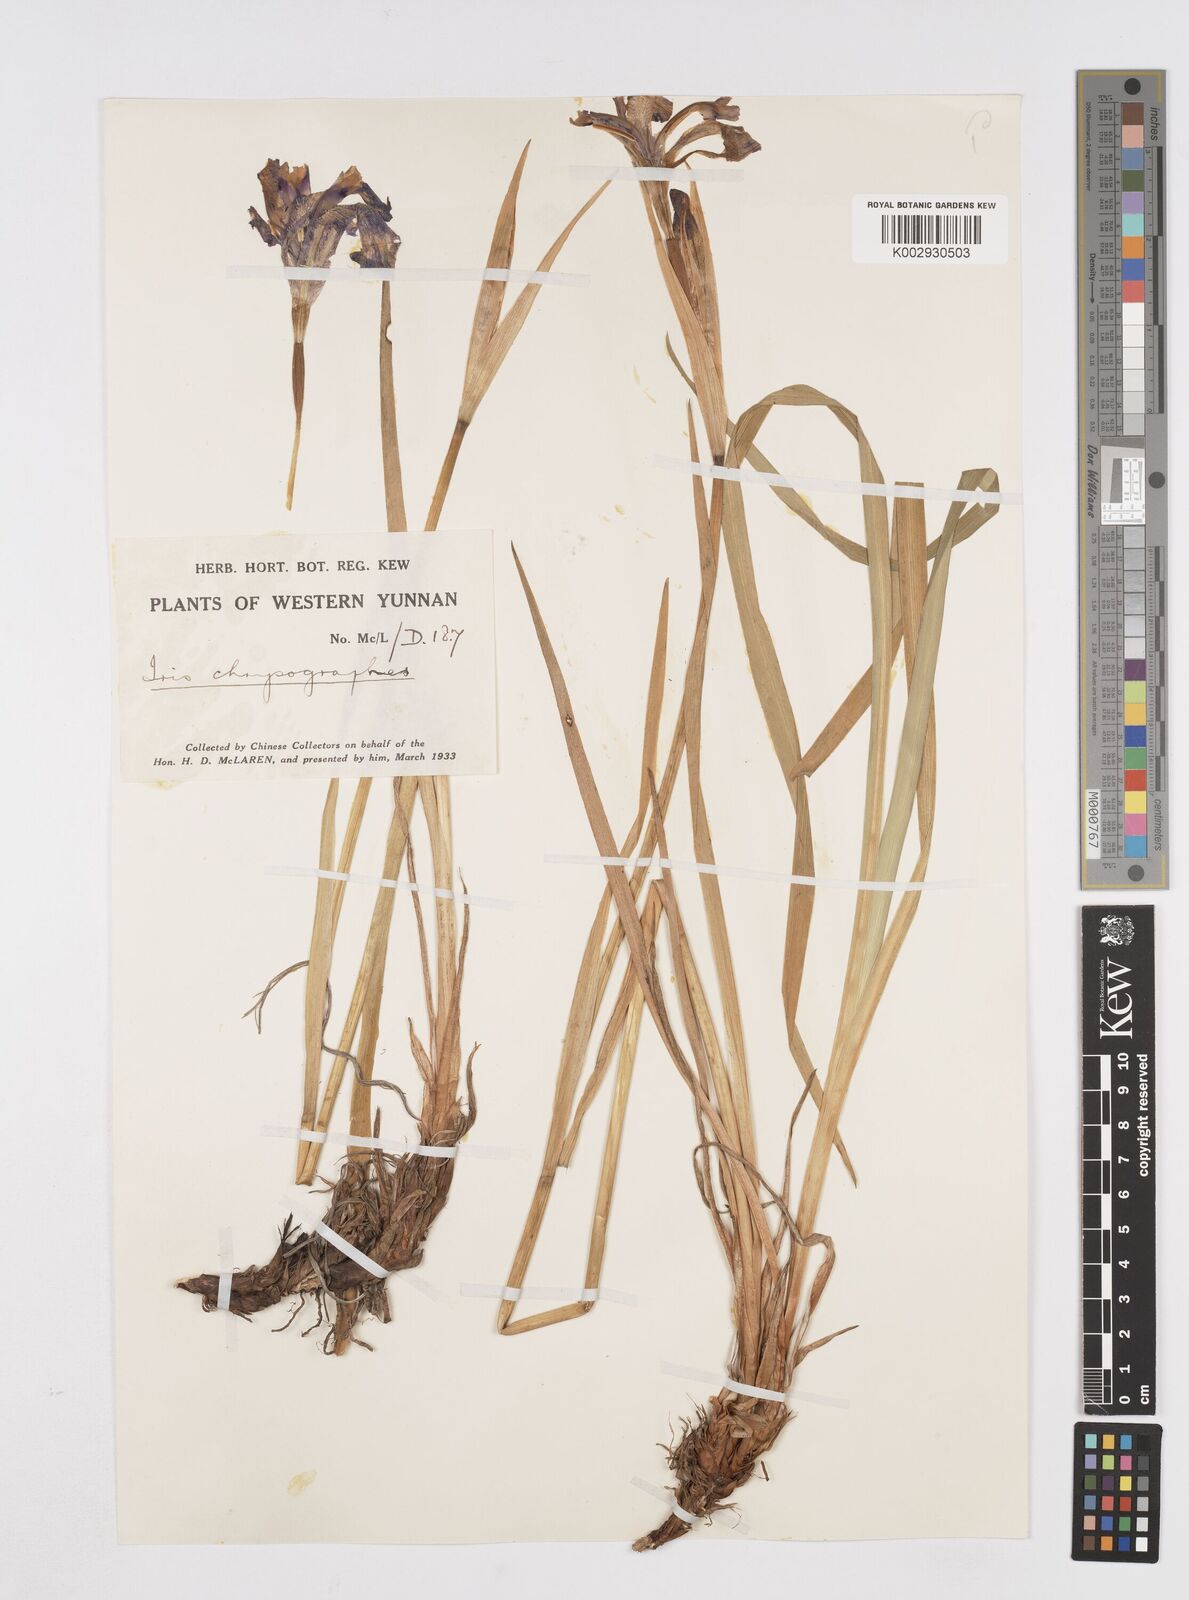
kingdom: Plantae
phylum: Tracheophyta
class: Liliopsida
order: Asparagales
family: Iridaceae
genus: Iris
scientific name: Iris chrysographes
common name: Gold-vein iris
